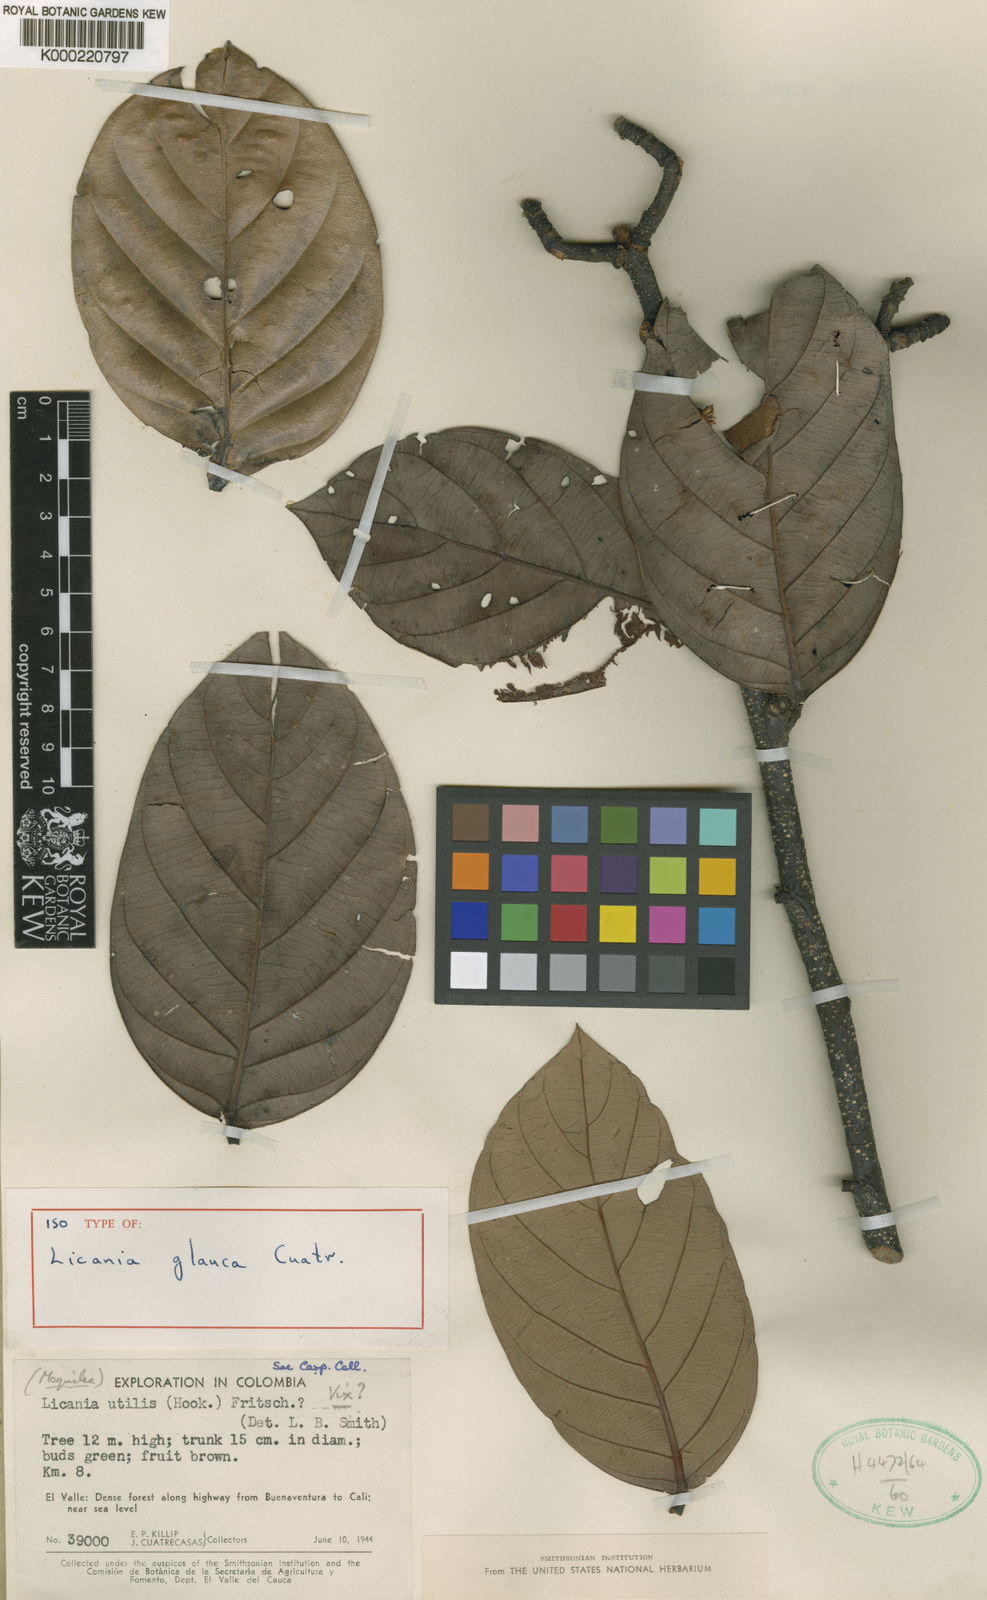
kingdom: Plantae
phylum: Tracheophyta
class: Magnoliopsida
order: Malpighiales
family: Chrysobalanaceae
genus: Licania
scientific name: Licania glauca
